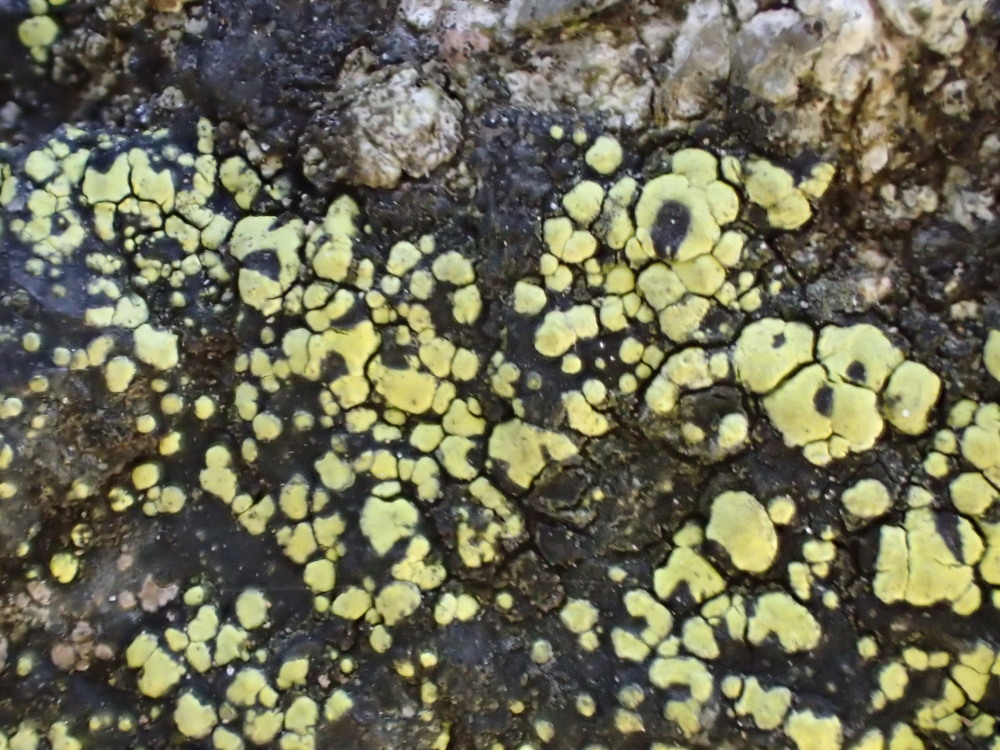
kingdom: Fungi
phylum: Ascomycota
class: Lecanoromycetes
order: Rhizocarpales
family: Rhizocarpaceae
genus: Rhizocarpon
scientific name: Rhizocarpon lecanorinum
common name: krave-landkortlav
